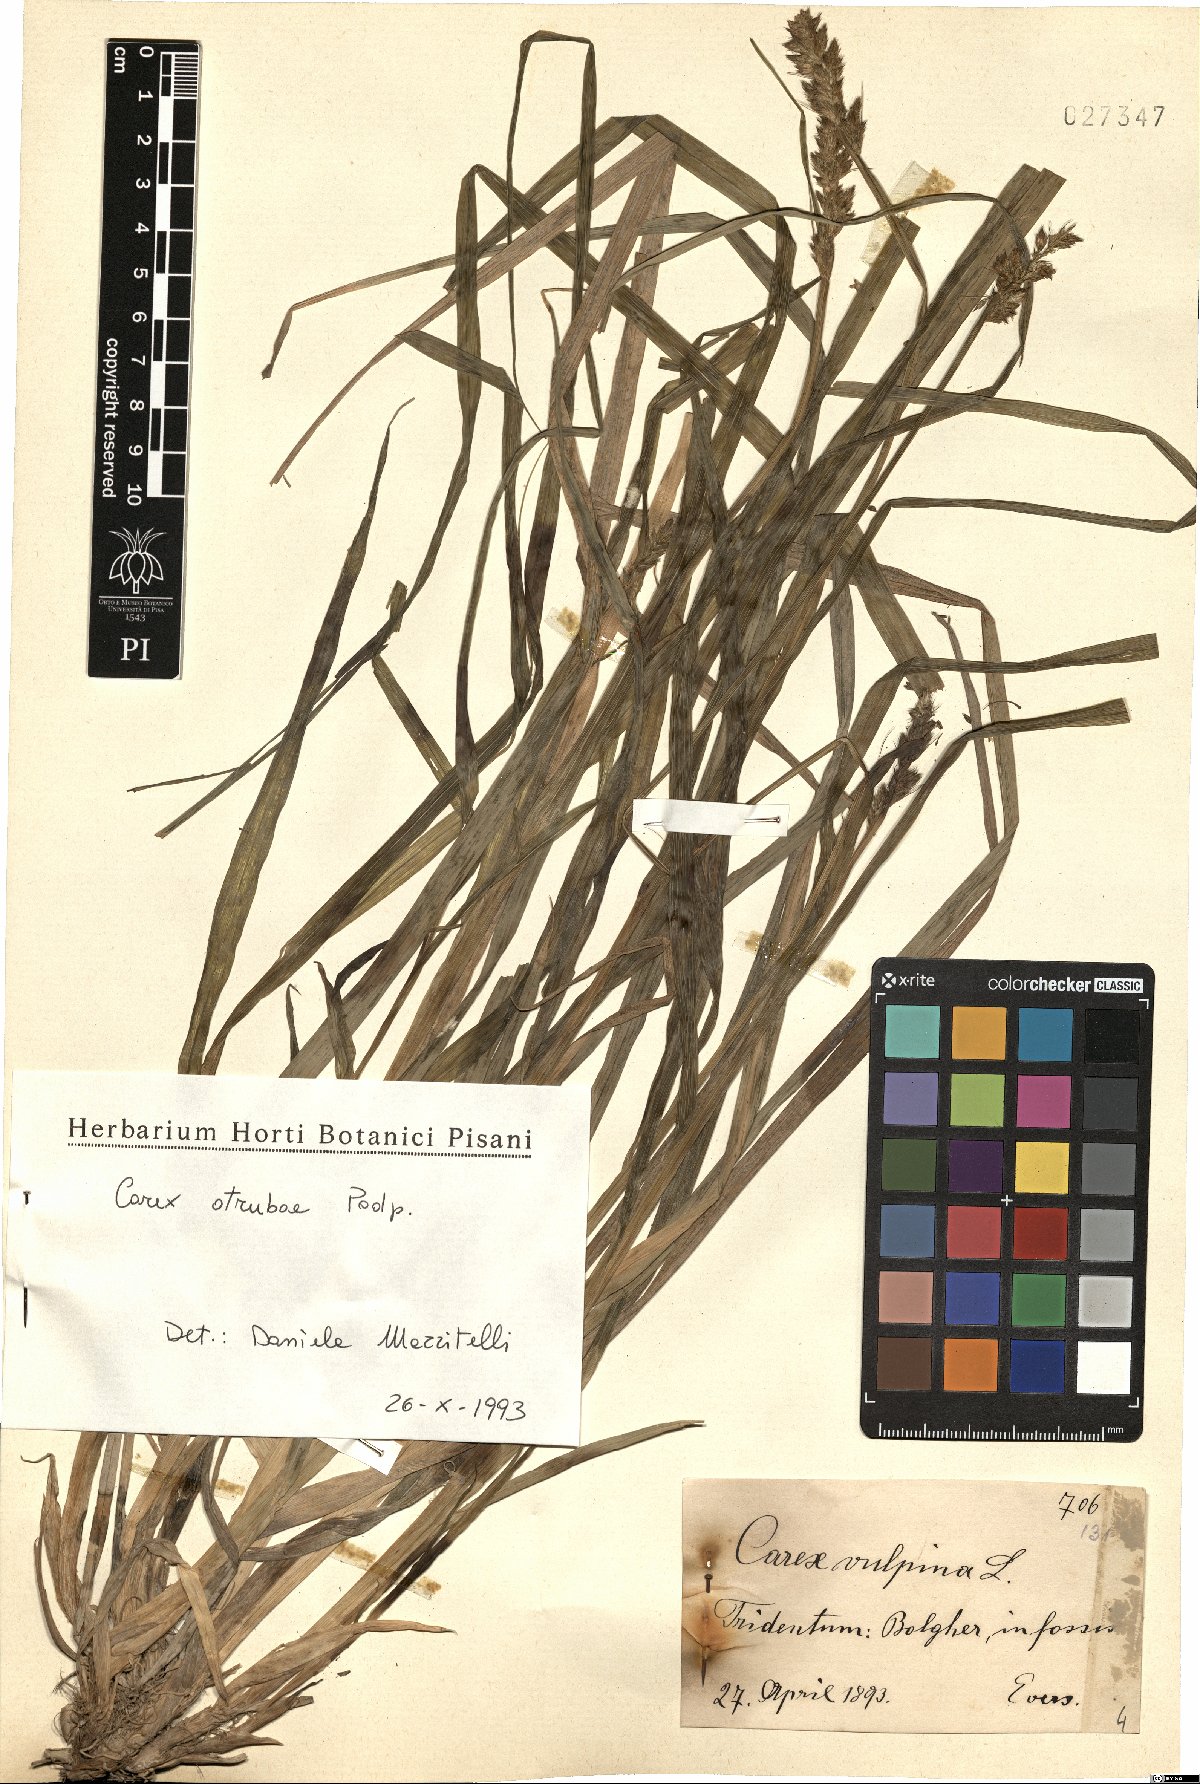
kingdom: Plantae
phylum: Tracheophyta
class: Liliopsida
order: Poales
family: Cyperaceae
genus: Carex
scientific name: Carex otrubae
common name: False fox-sedge
